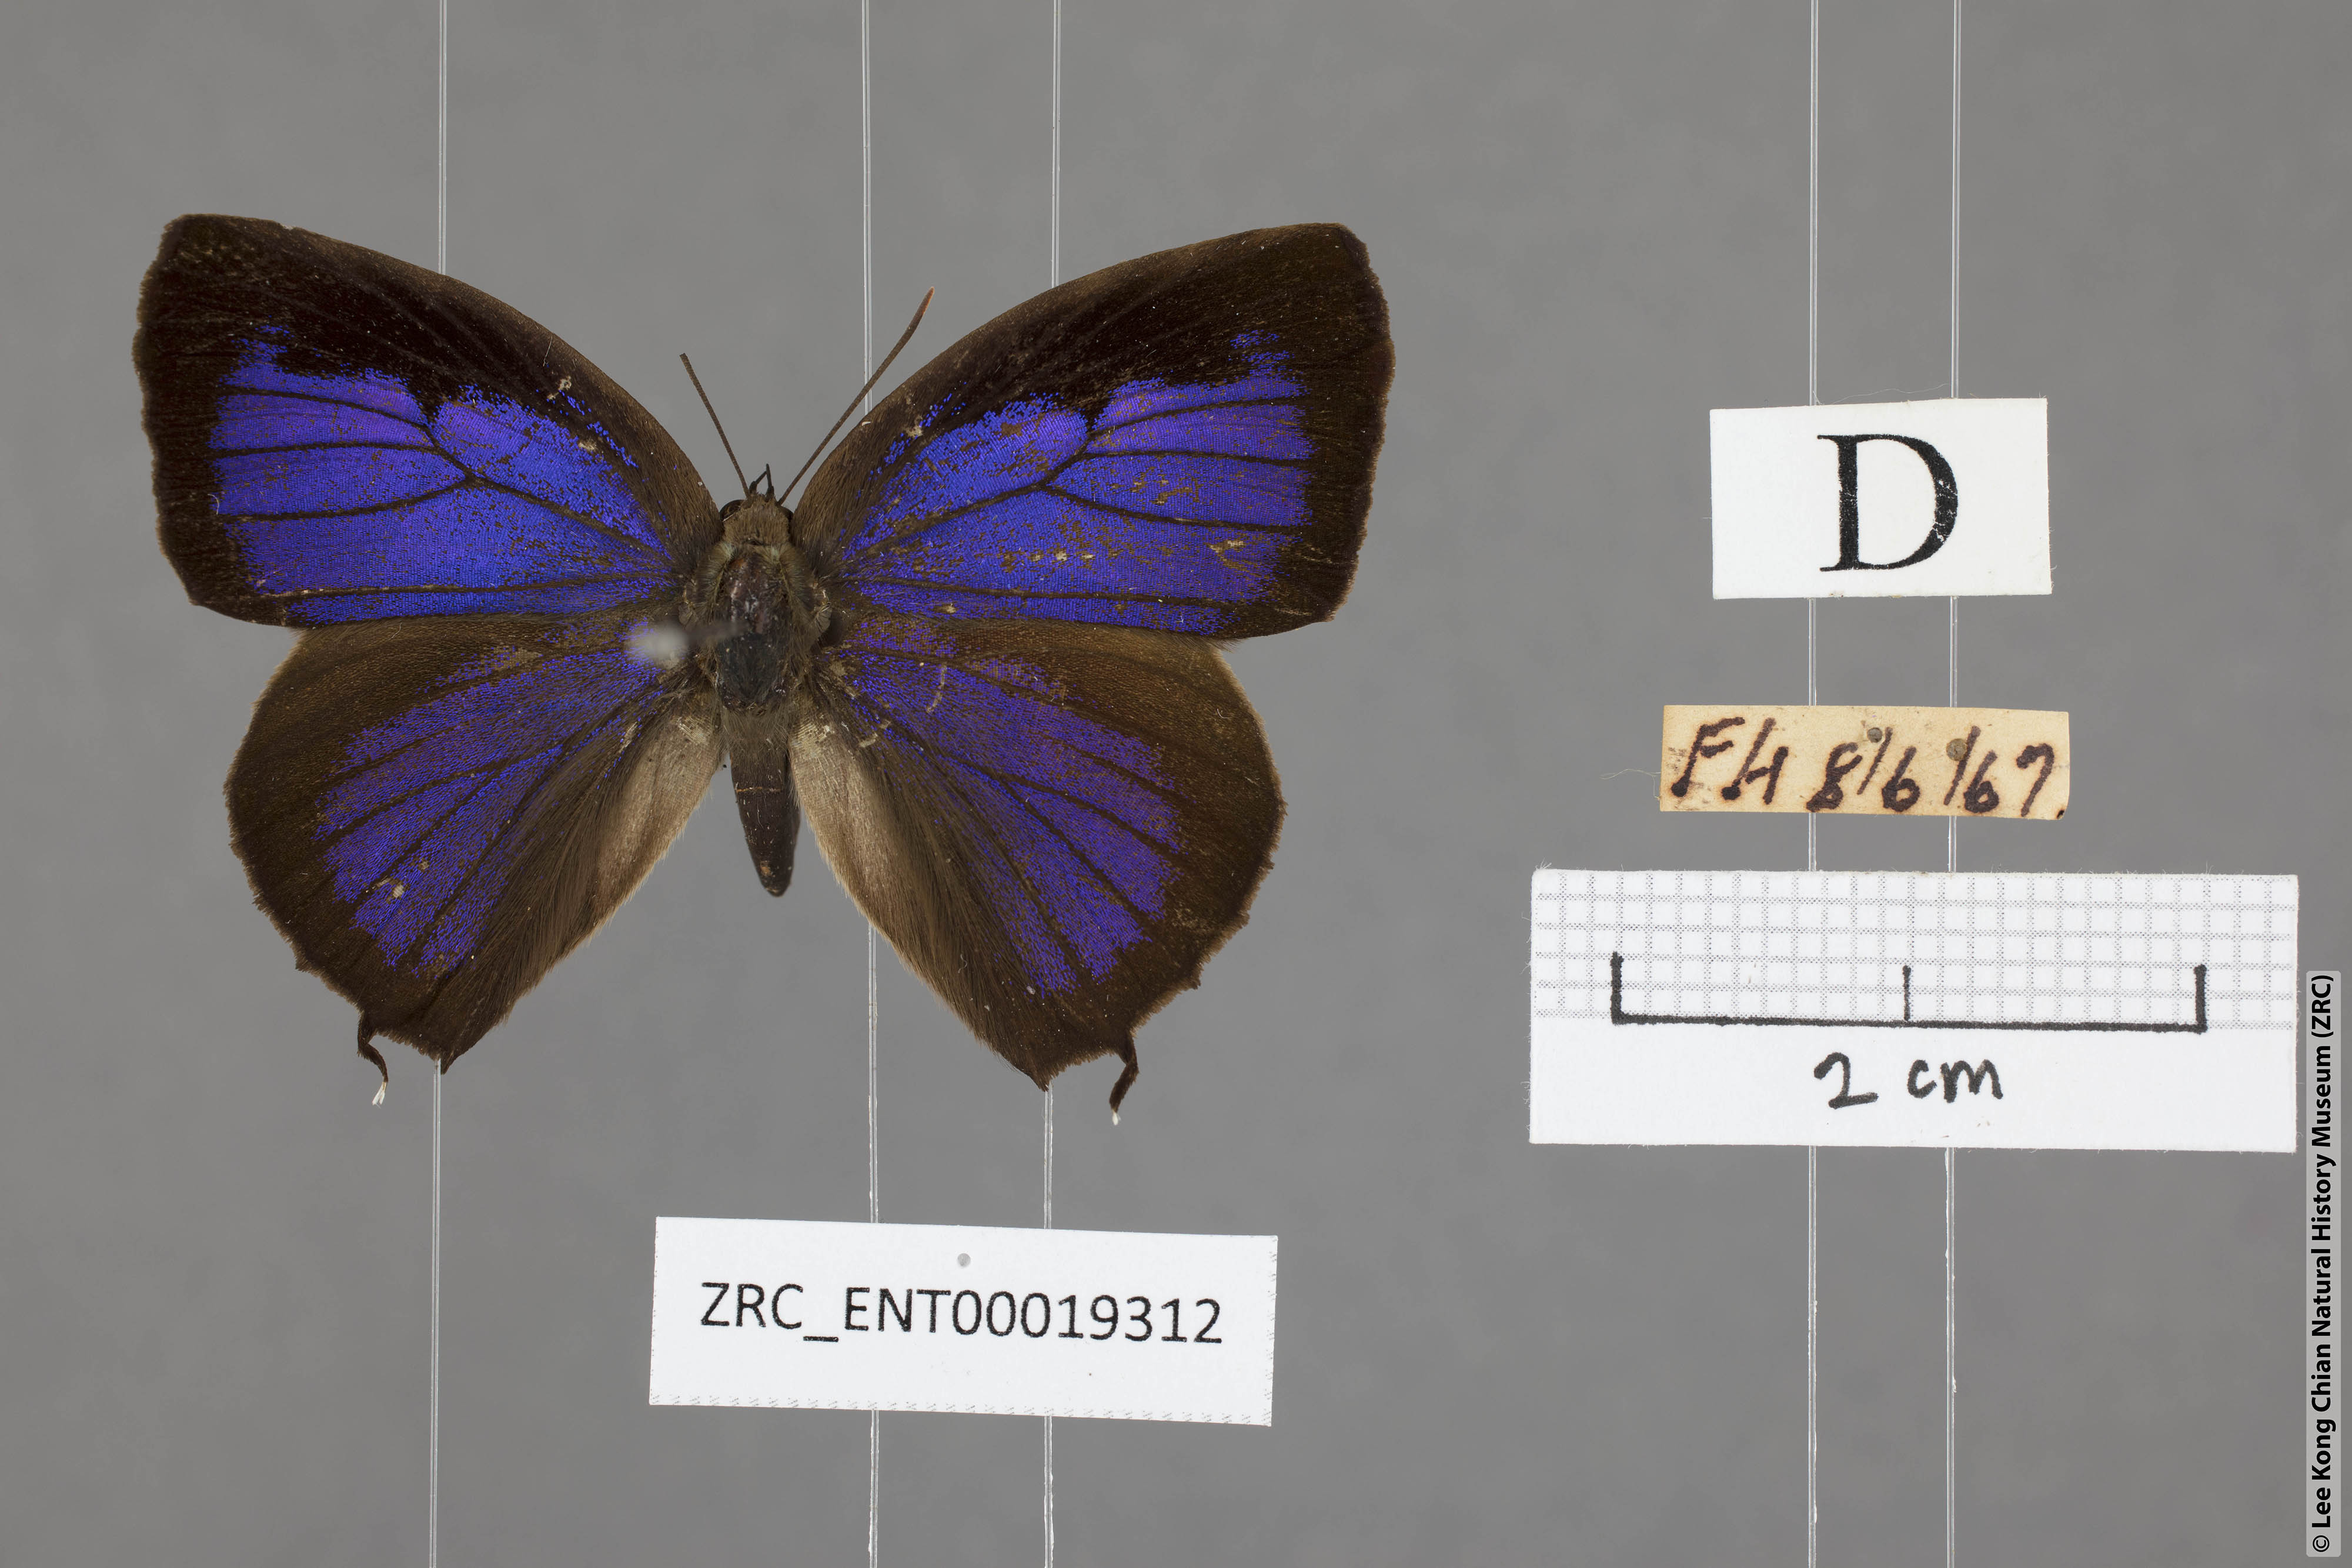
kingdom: Animalia
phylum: Arthropoda
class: Insecta
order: Lepidoptera
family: Lycaenidae
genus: Arhopala
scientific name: Arhopala bazalus
